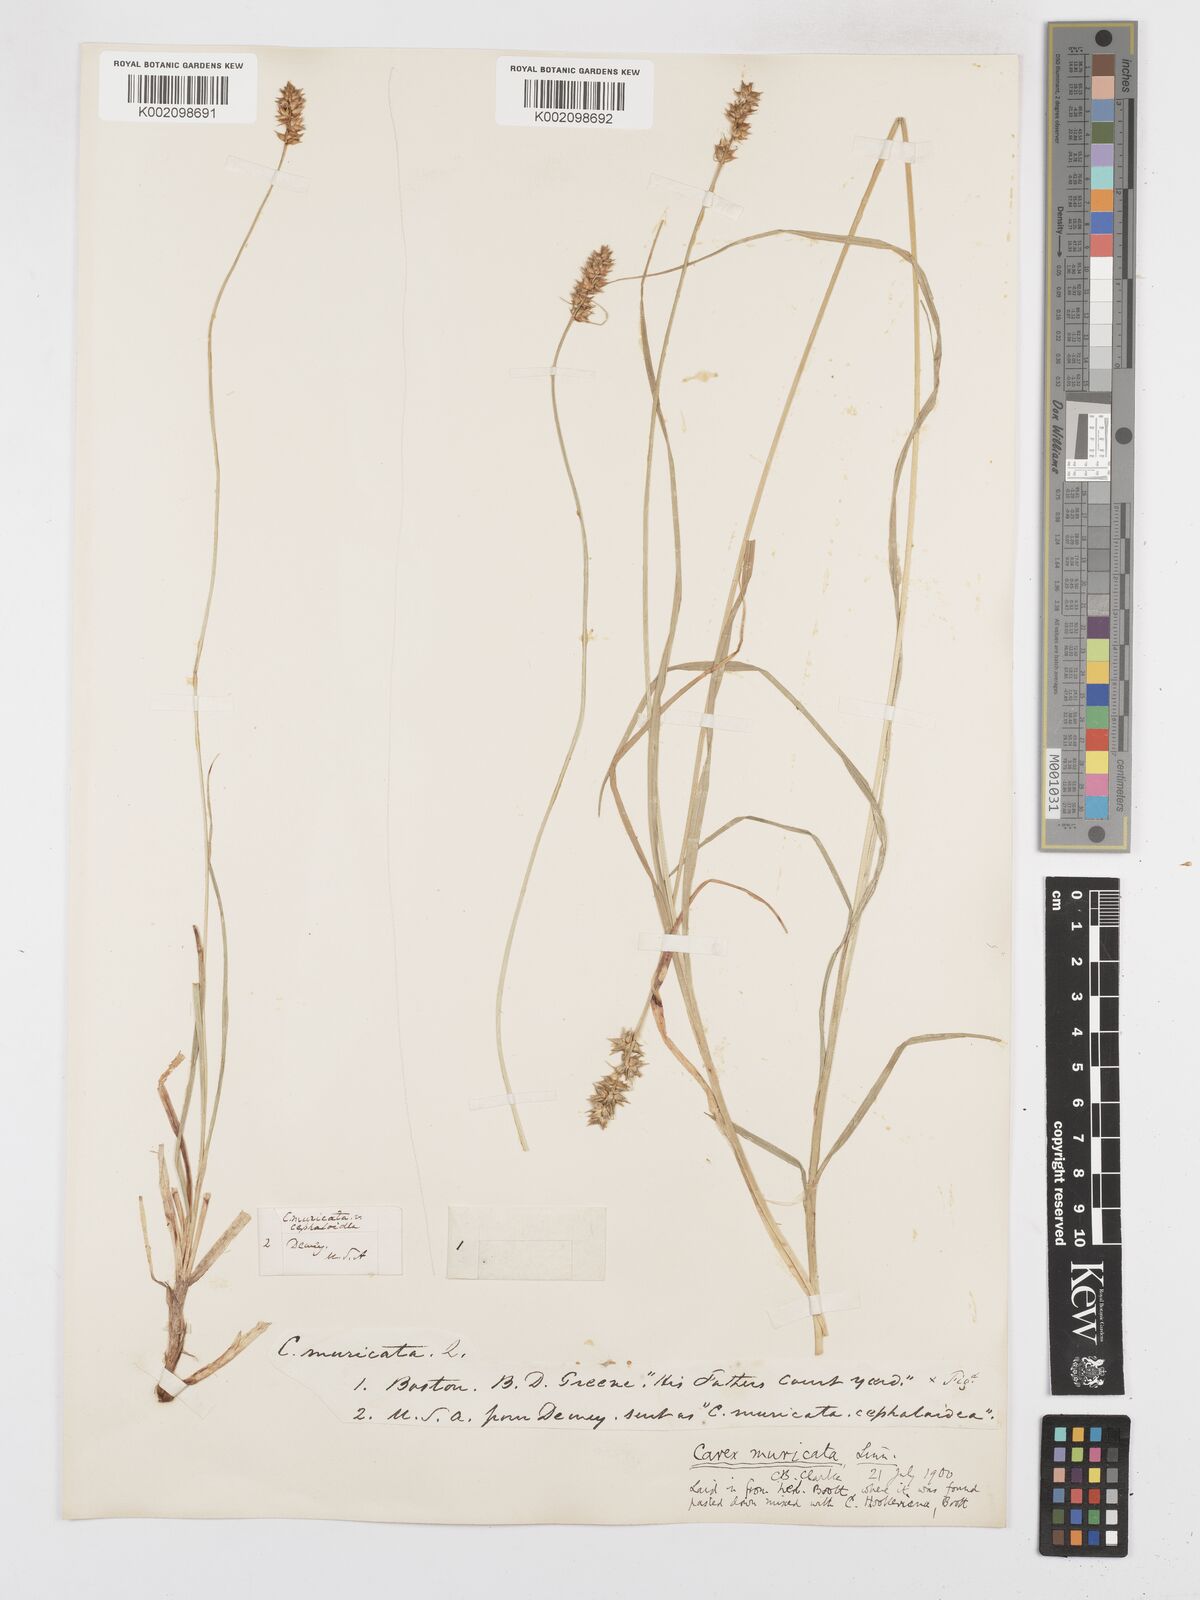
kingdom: Plantae
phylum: Tracheophyta
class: Liliopsida
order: Poales
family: Cyperaceae
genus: Carex
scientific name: Carex spicata
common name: Spiked sedge
